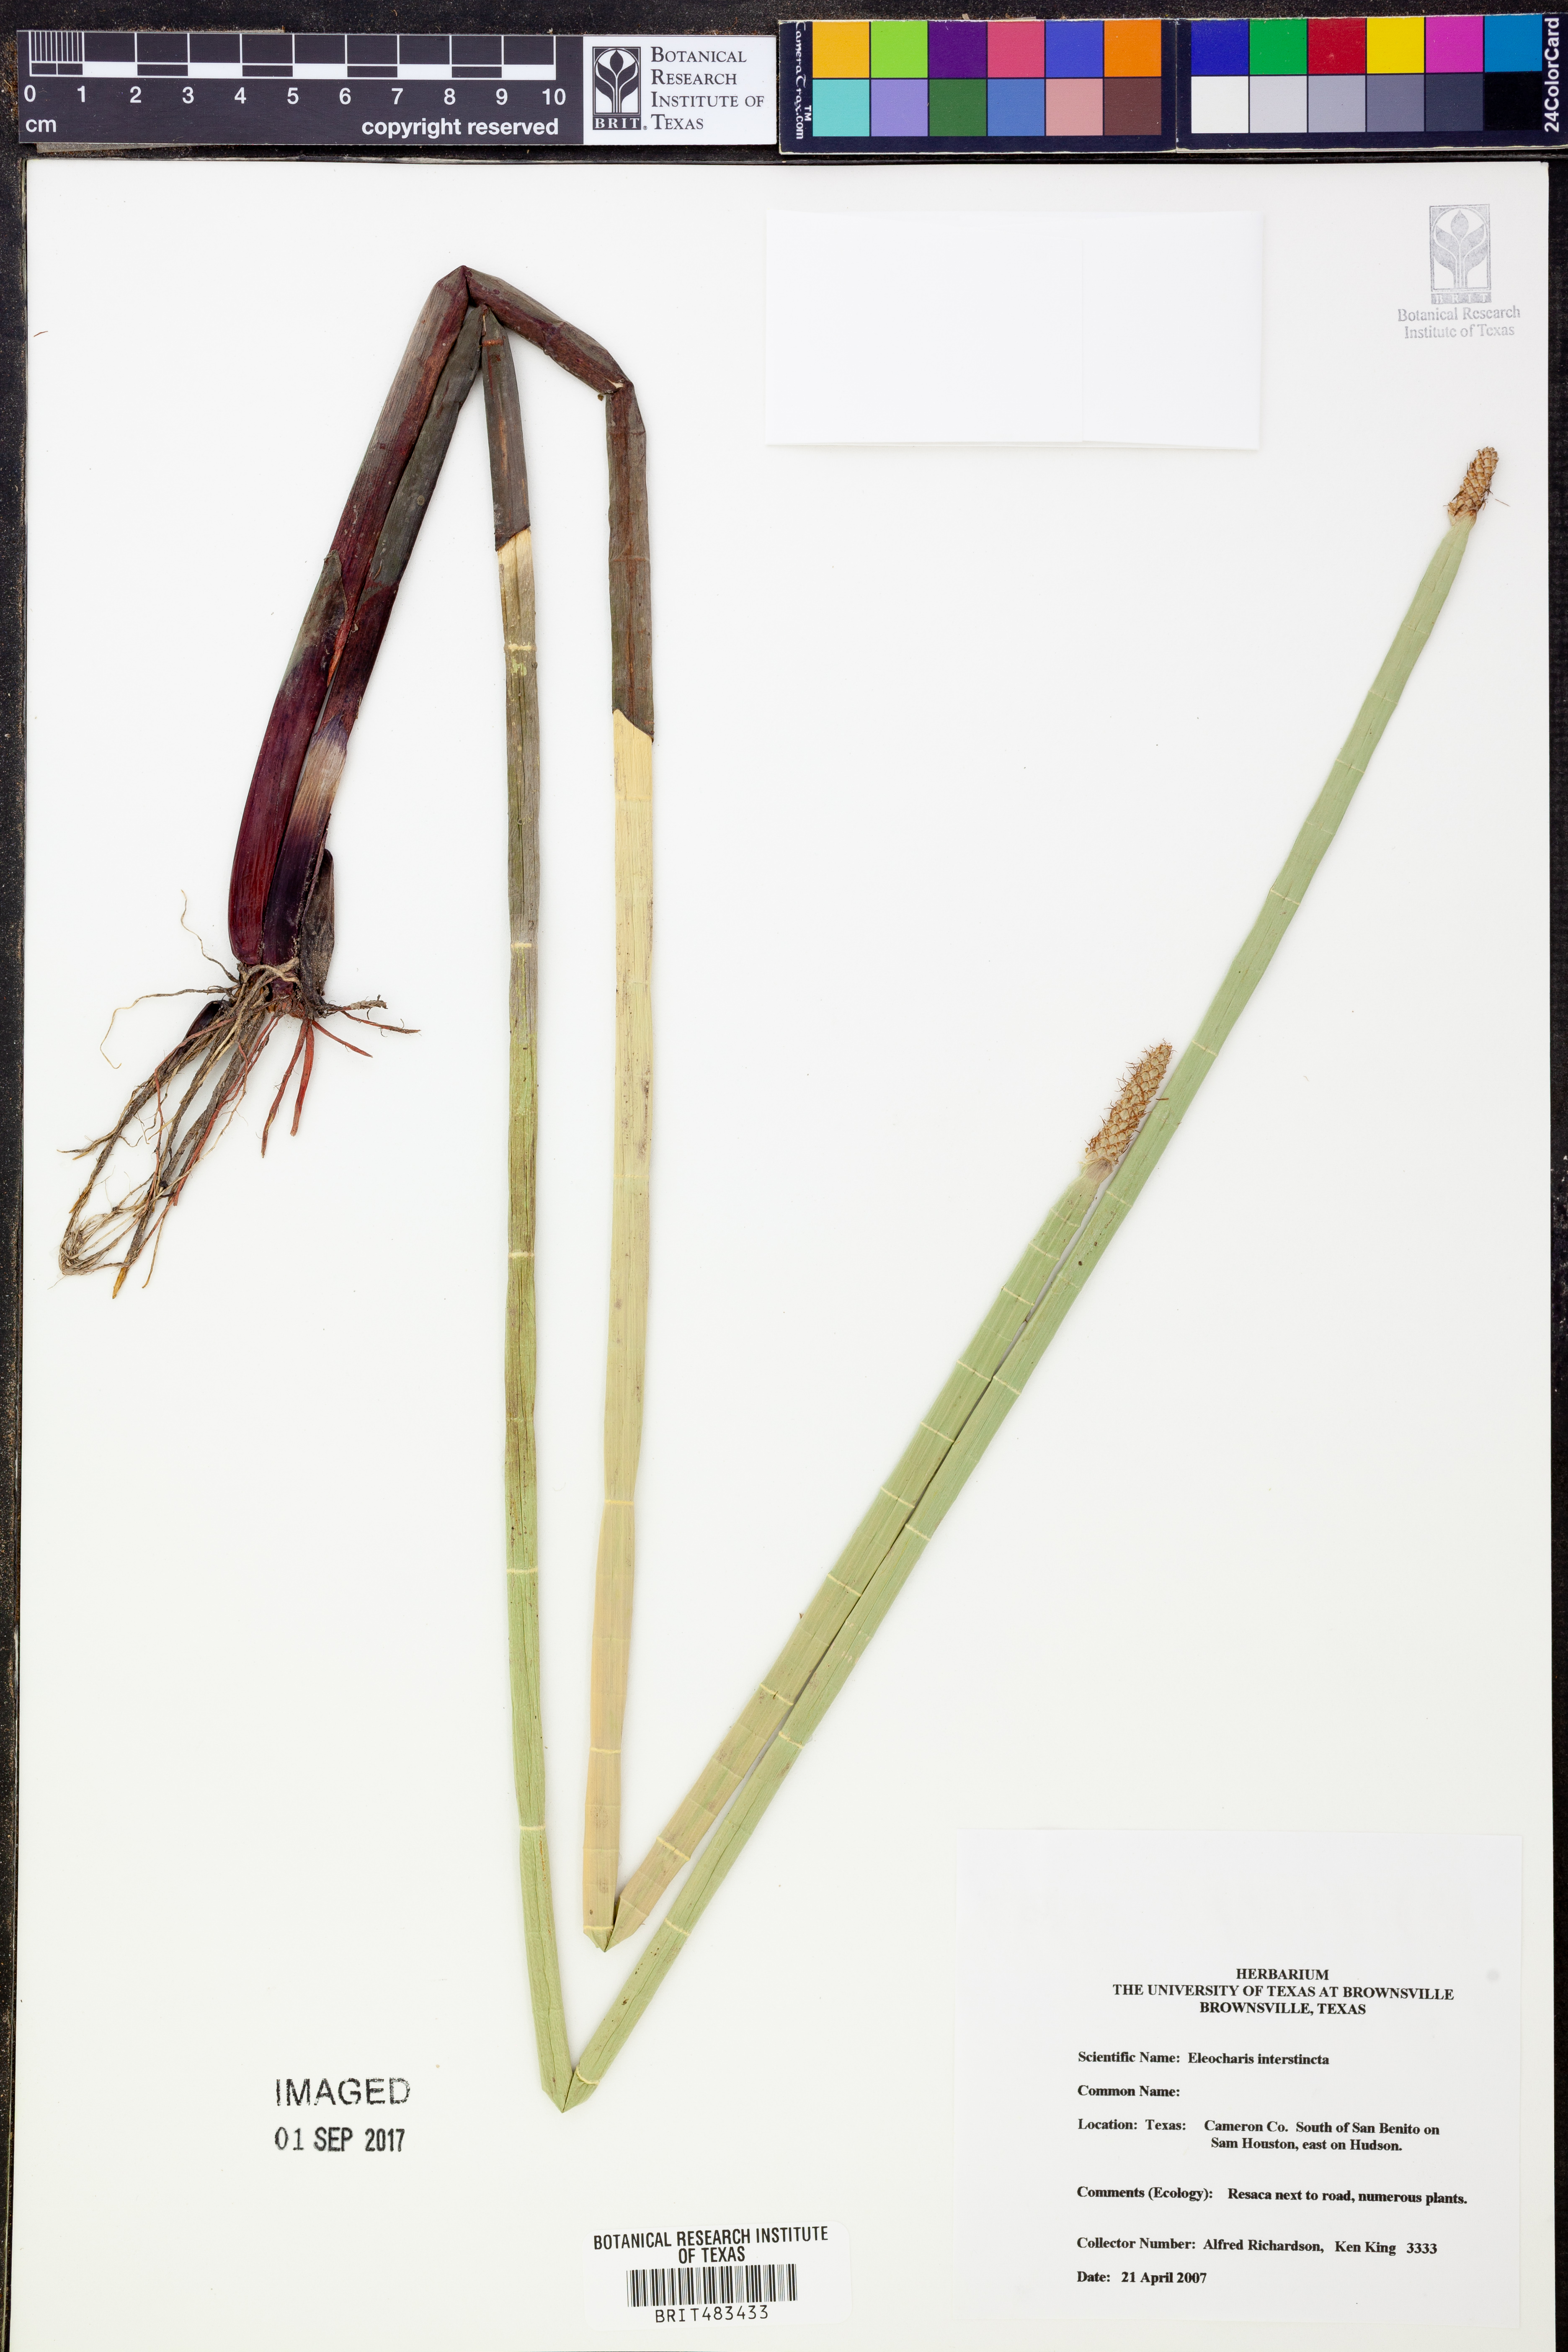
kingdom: Plantae
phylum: Tracheophyta
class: Liliopsida
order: Poales
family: Cyperaceae
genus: Eleocharis
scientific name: Eleocharis interstincta
